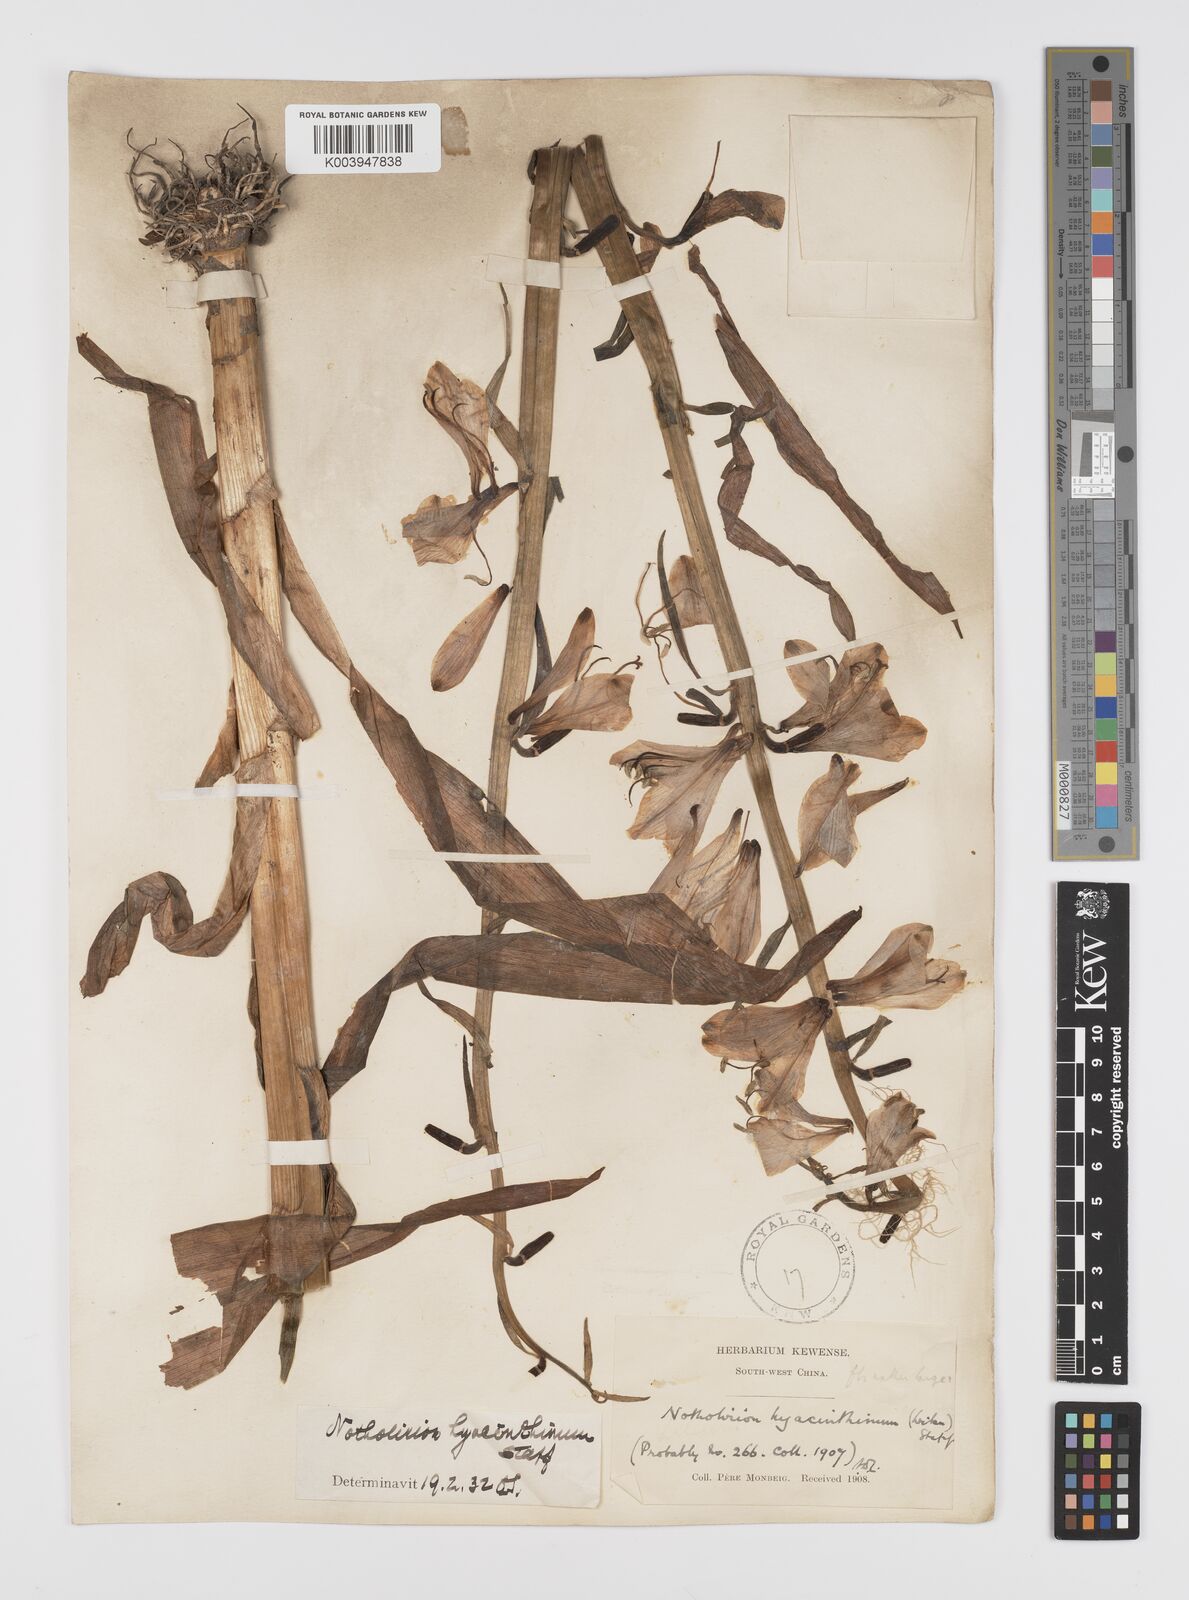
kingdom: Plantae
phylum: Tracheophyta
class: Liliopsida
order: Liliales
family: Liliaceae
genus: Notholirion
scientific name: Notholirion bulbuliferum
